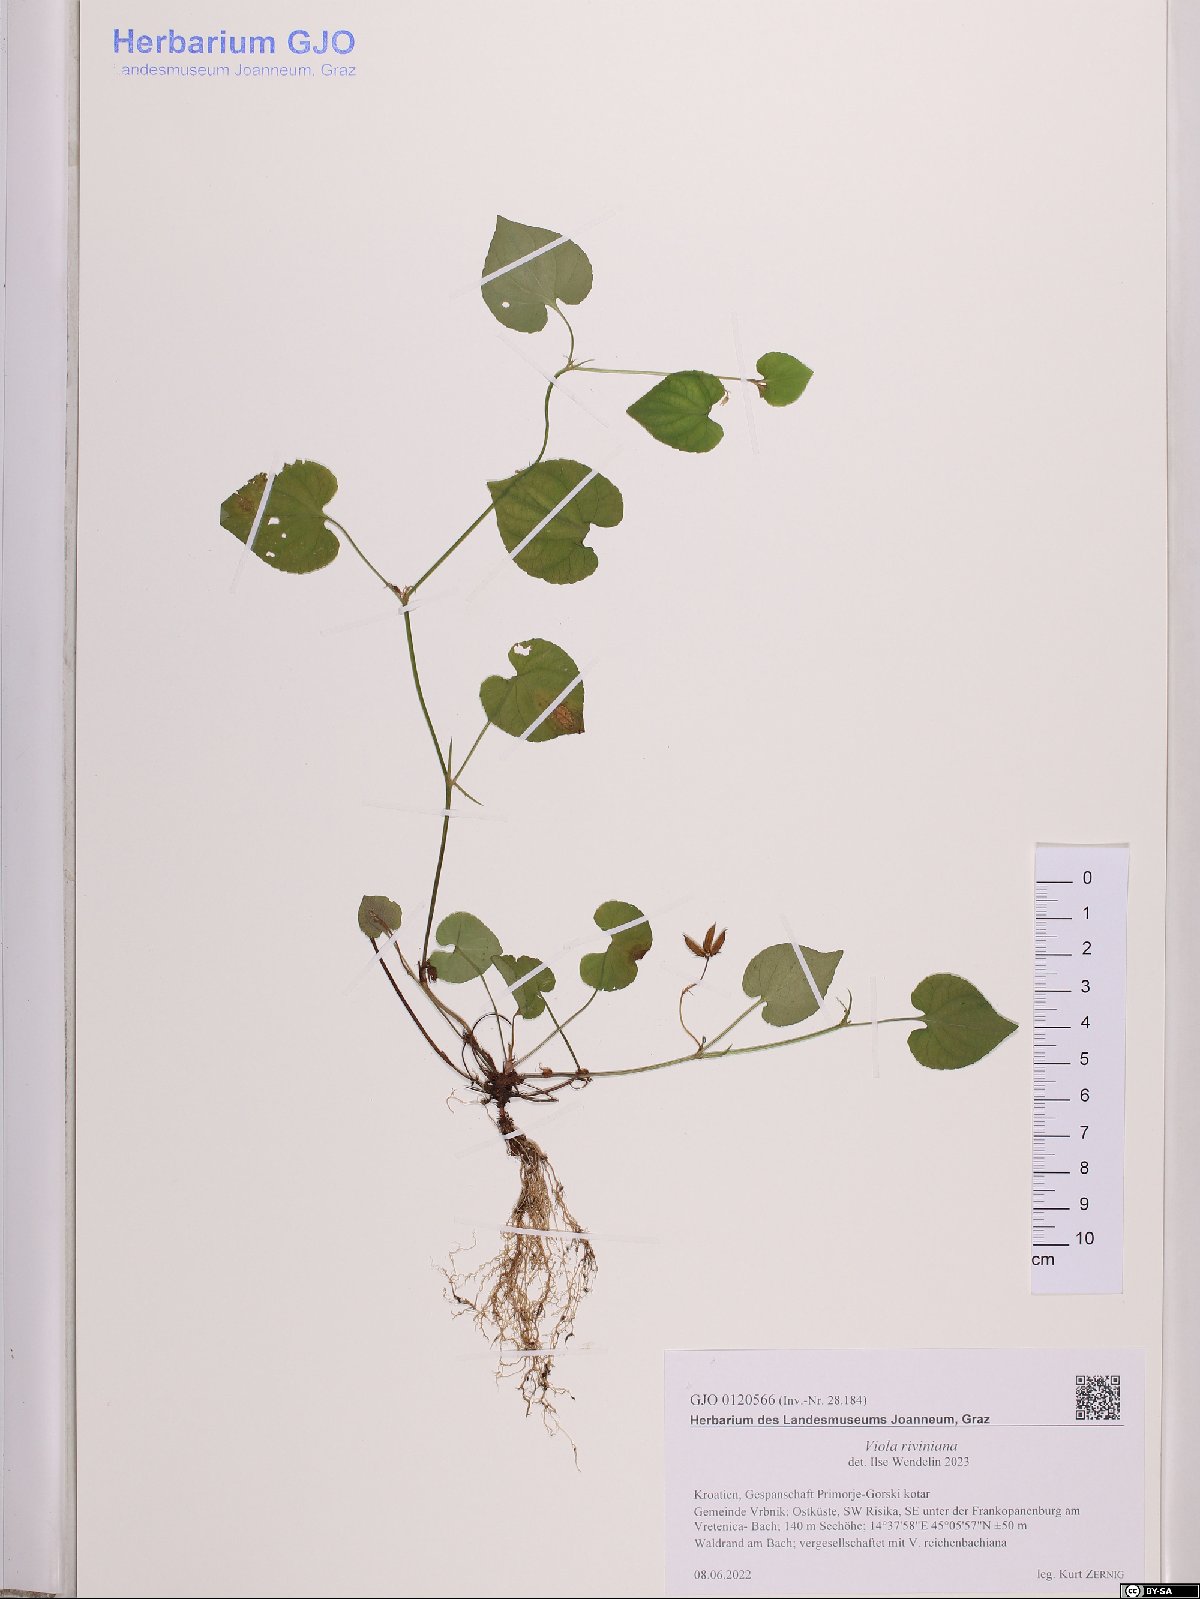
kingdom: Plantae
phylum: Tracheophyta
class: Magnoliopsida
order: Malpighiales
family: Violaceae
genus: Viola
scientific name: Viola riviniana
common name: Common dog-violet
